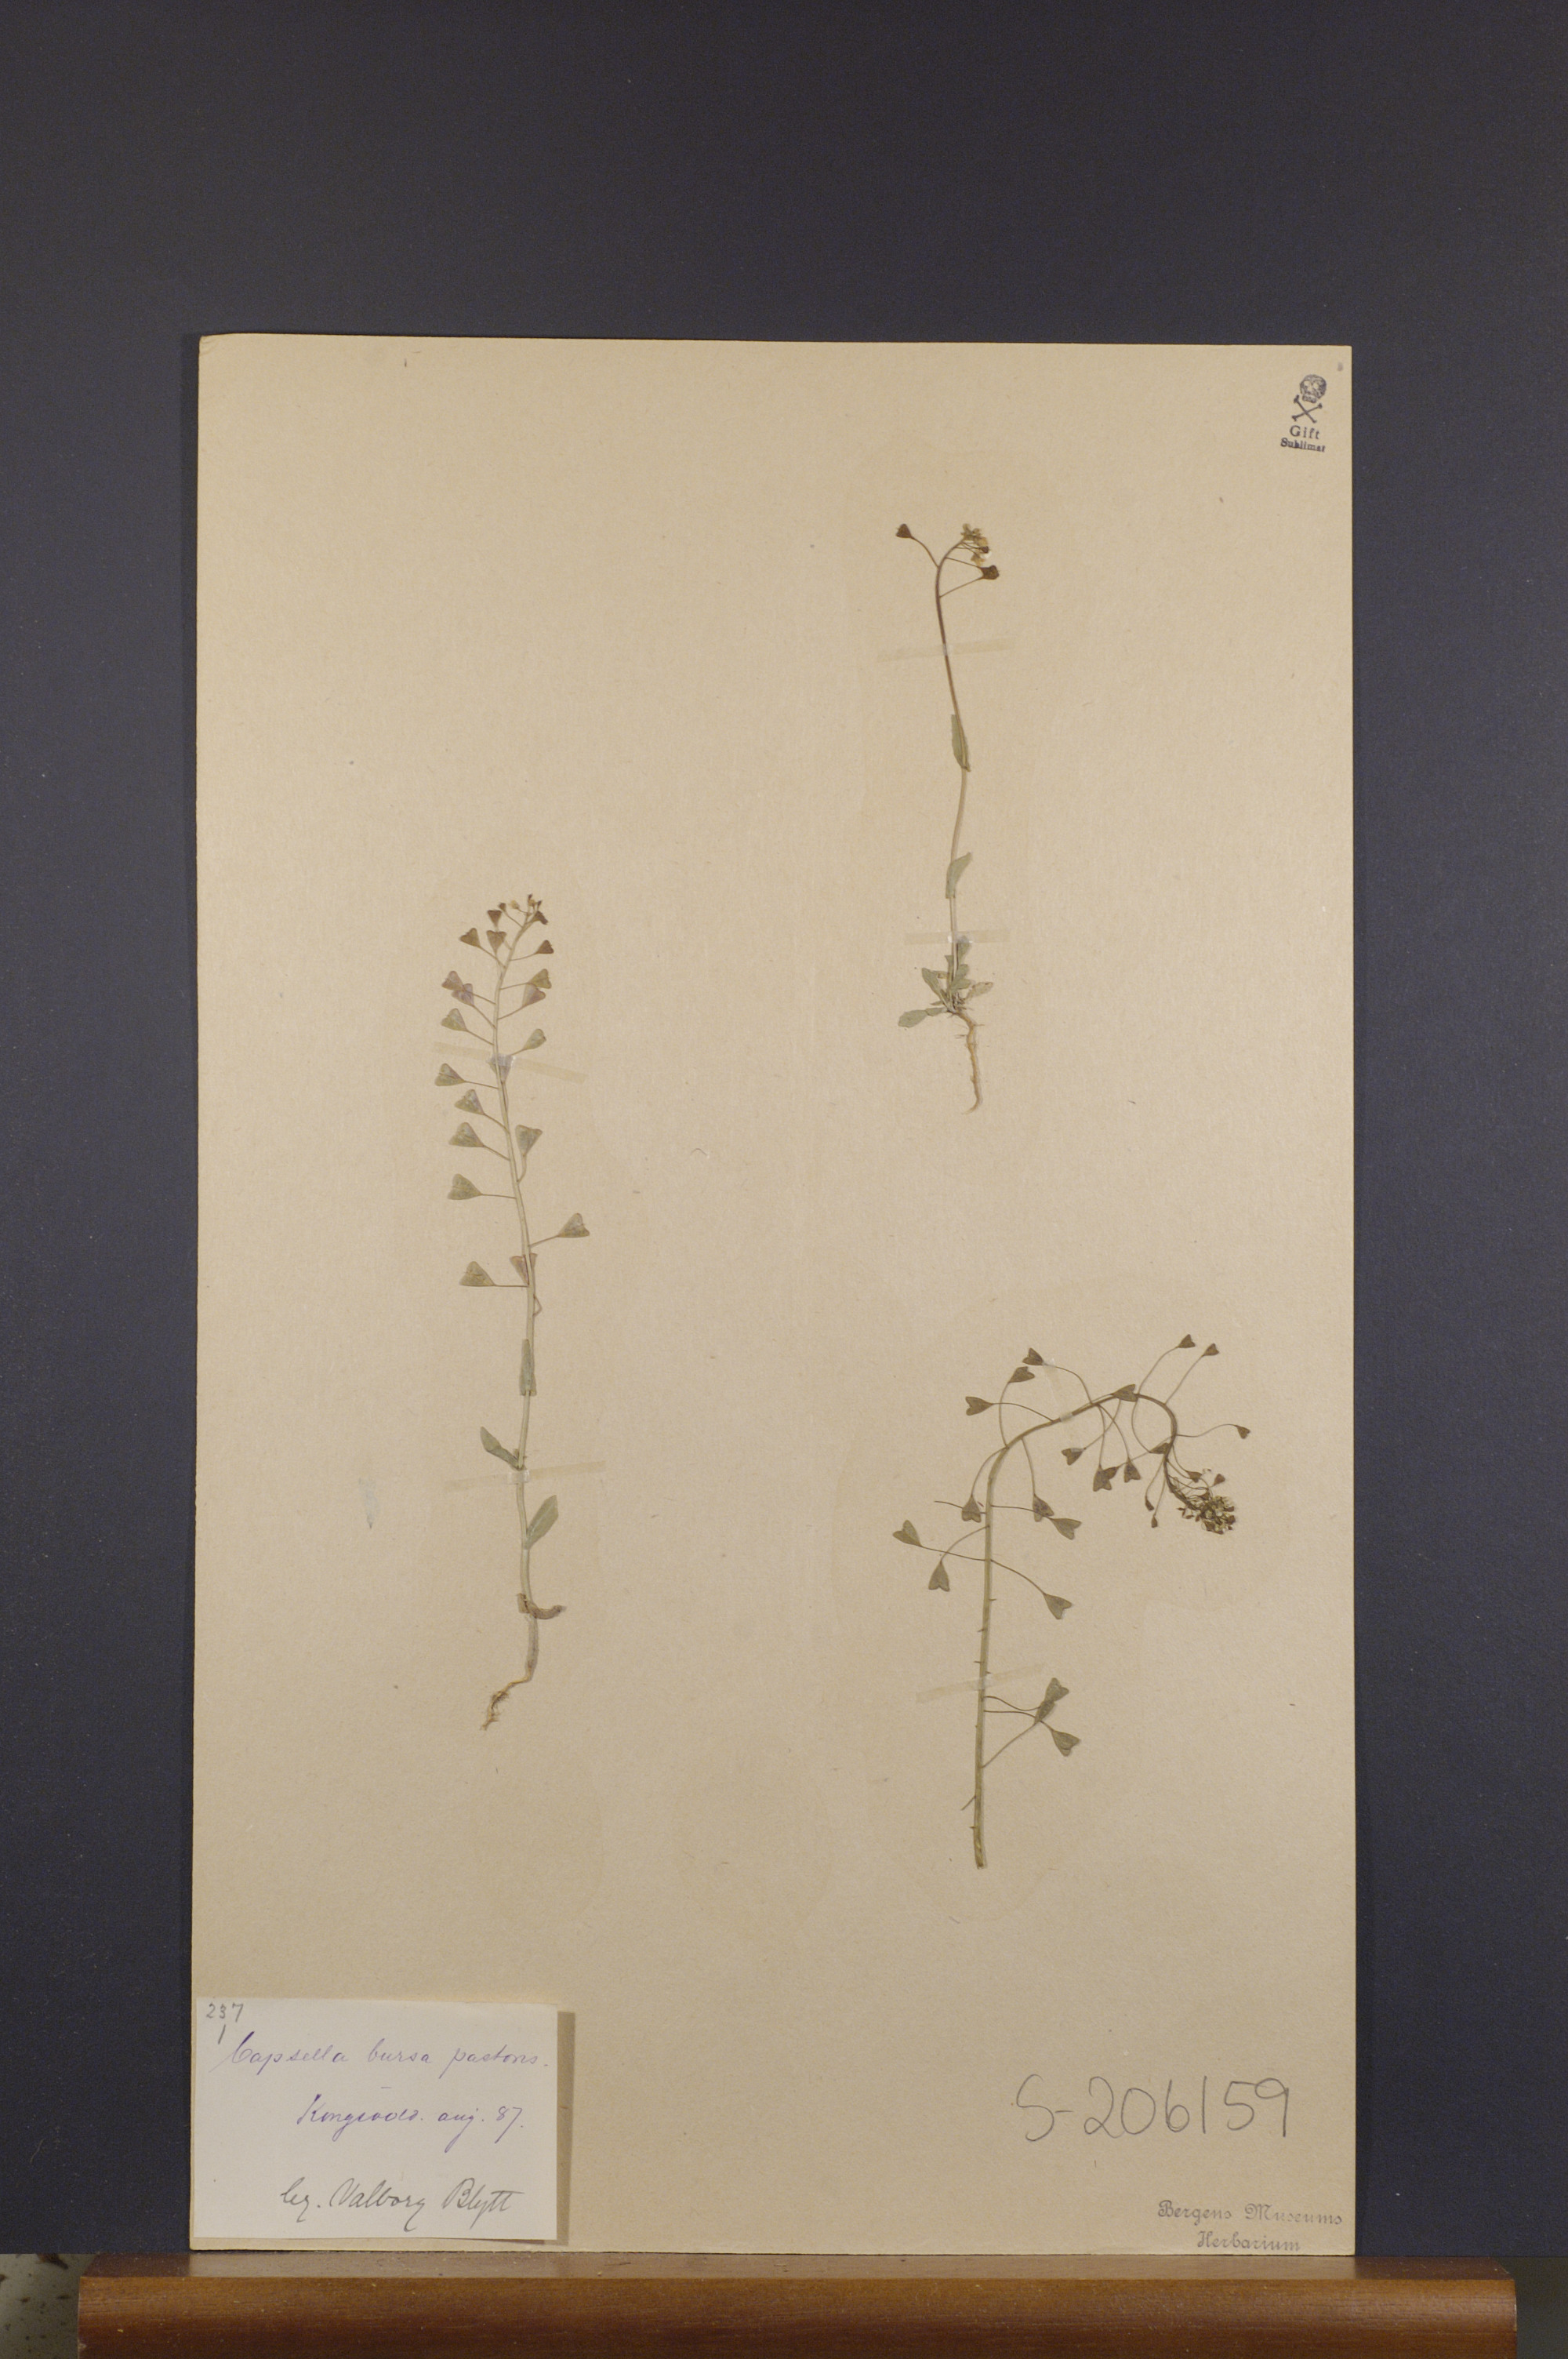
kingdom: Plantae
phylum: Tracheophyta
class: Magnoliopsida
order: Brassicales
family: Brassicaceae
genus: Capsella
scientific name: Capsella bursa-pastoris
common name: Shepherd's purse
